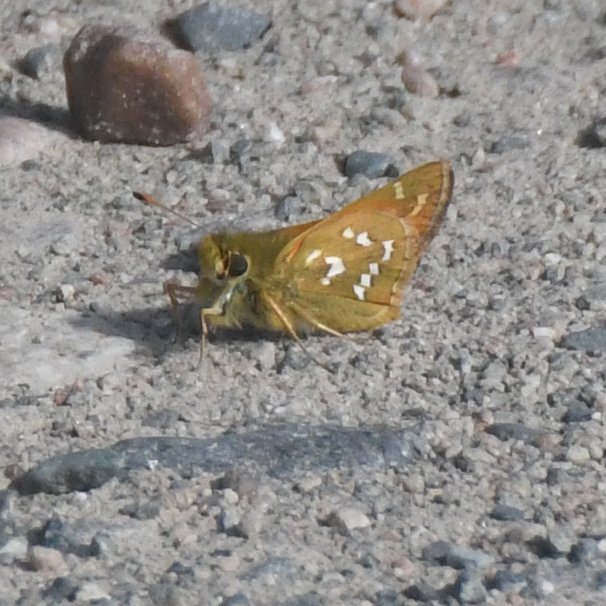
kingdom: Animalia
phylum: Arthropoda
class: Insecta
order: Lepidoptera
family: Hesperiidae
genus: Hesperia
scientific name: Hesperia comma
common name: Common Branded Skipper
